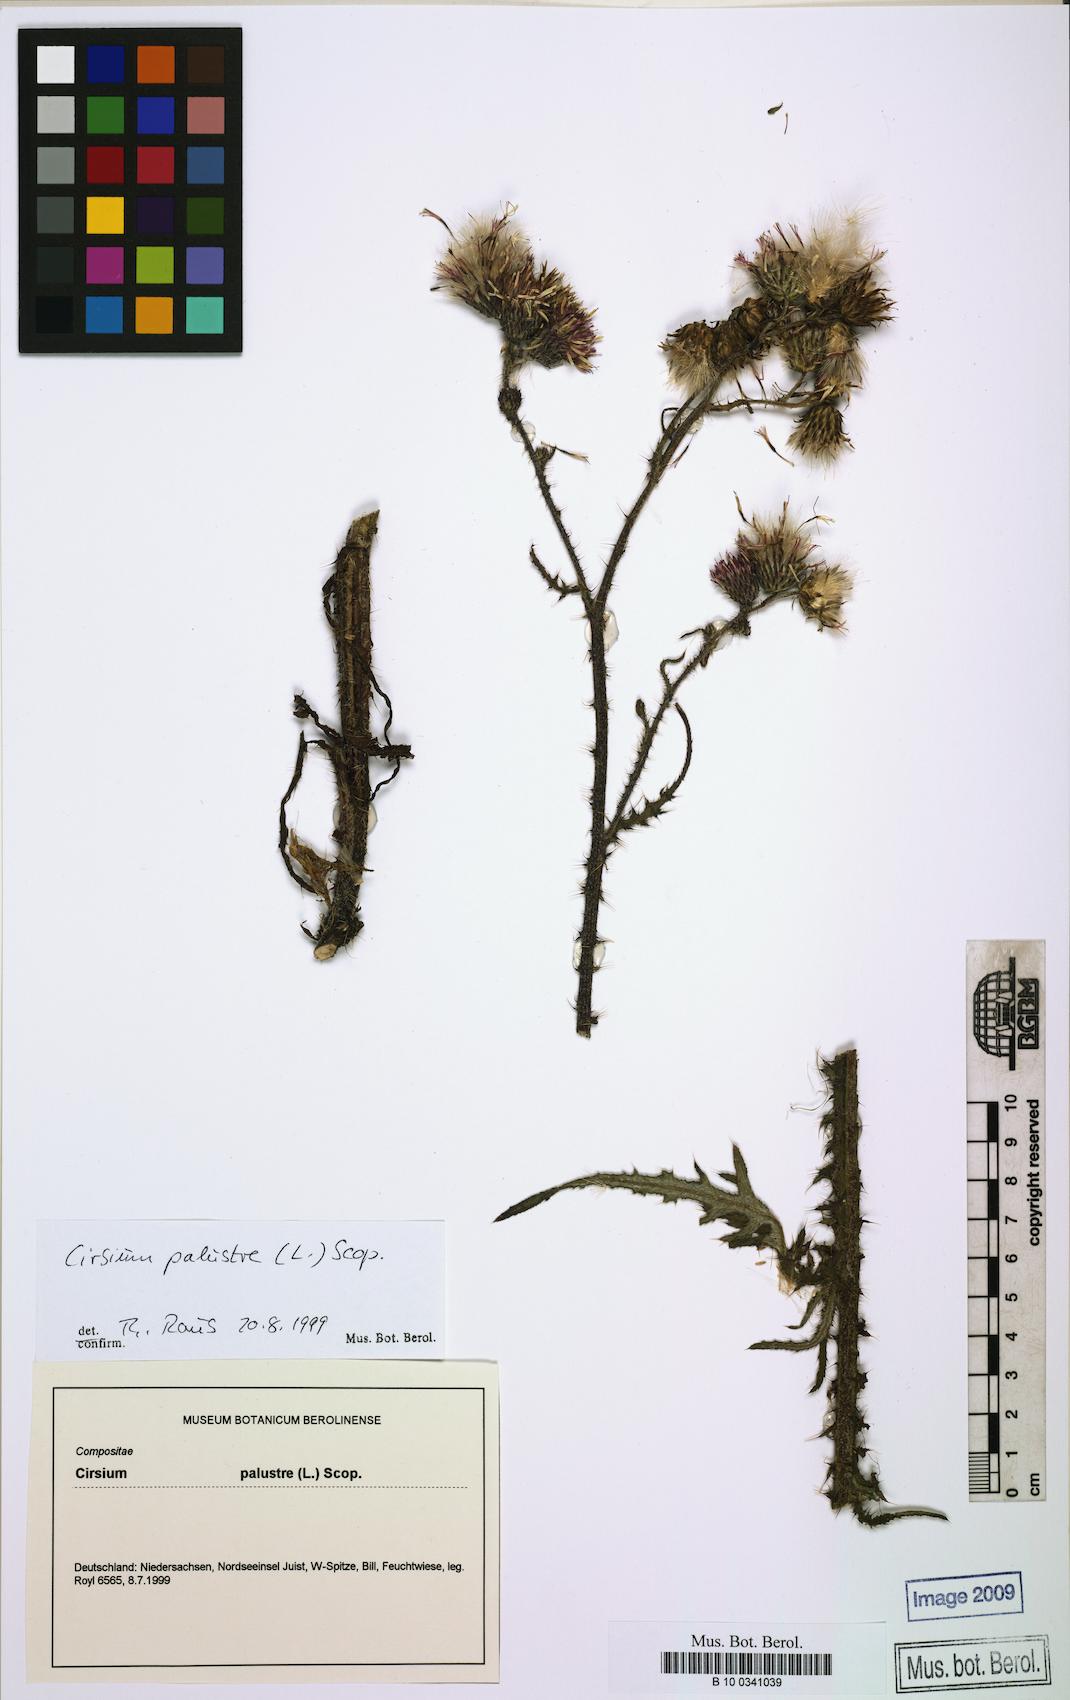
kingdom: Plantae
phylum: Tracheophyta
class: Magnoliopsida
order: Asterales
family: Asteraceae
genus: Cirsium
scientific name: Cirsium palustre
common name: Marsh thistle
